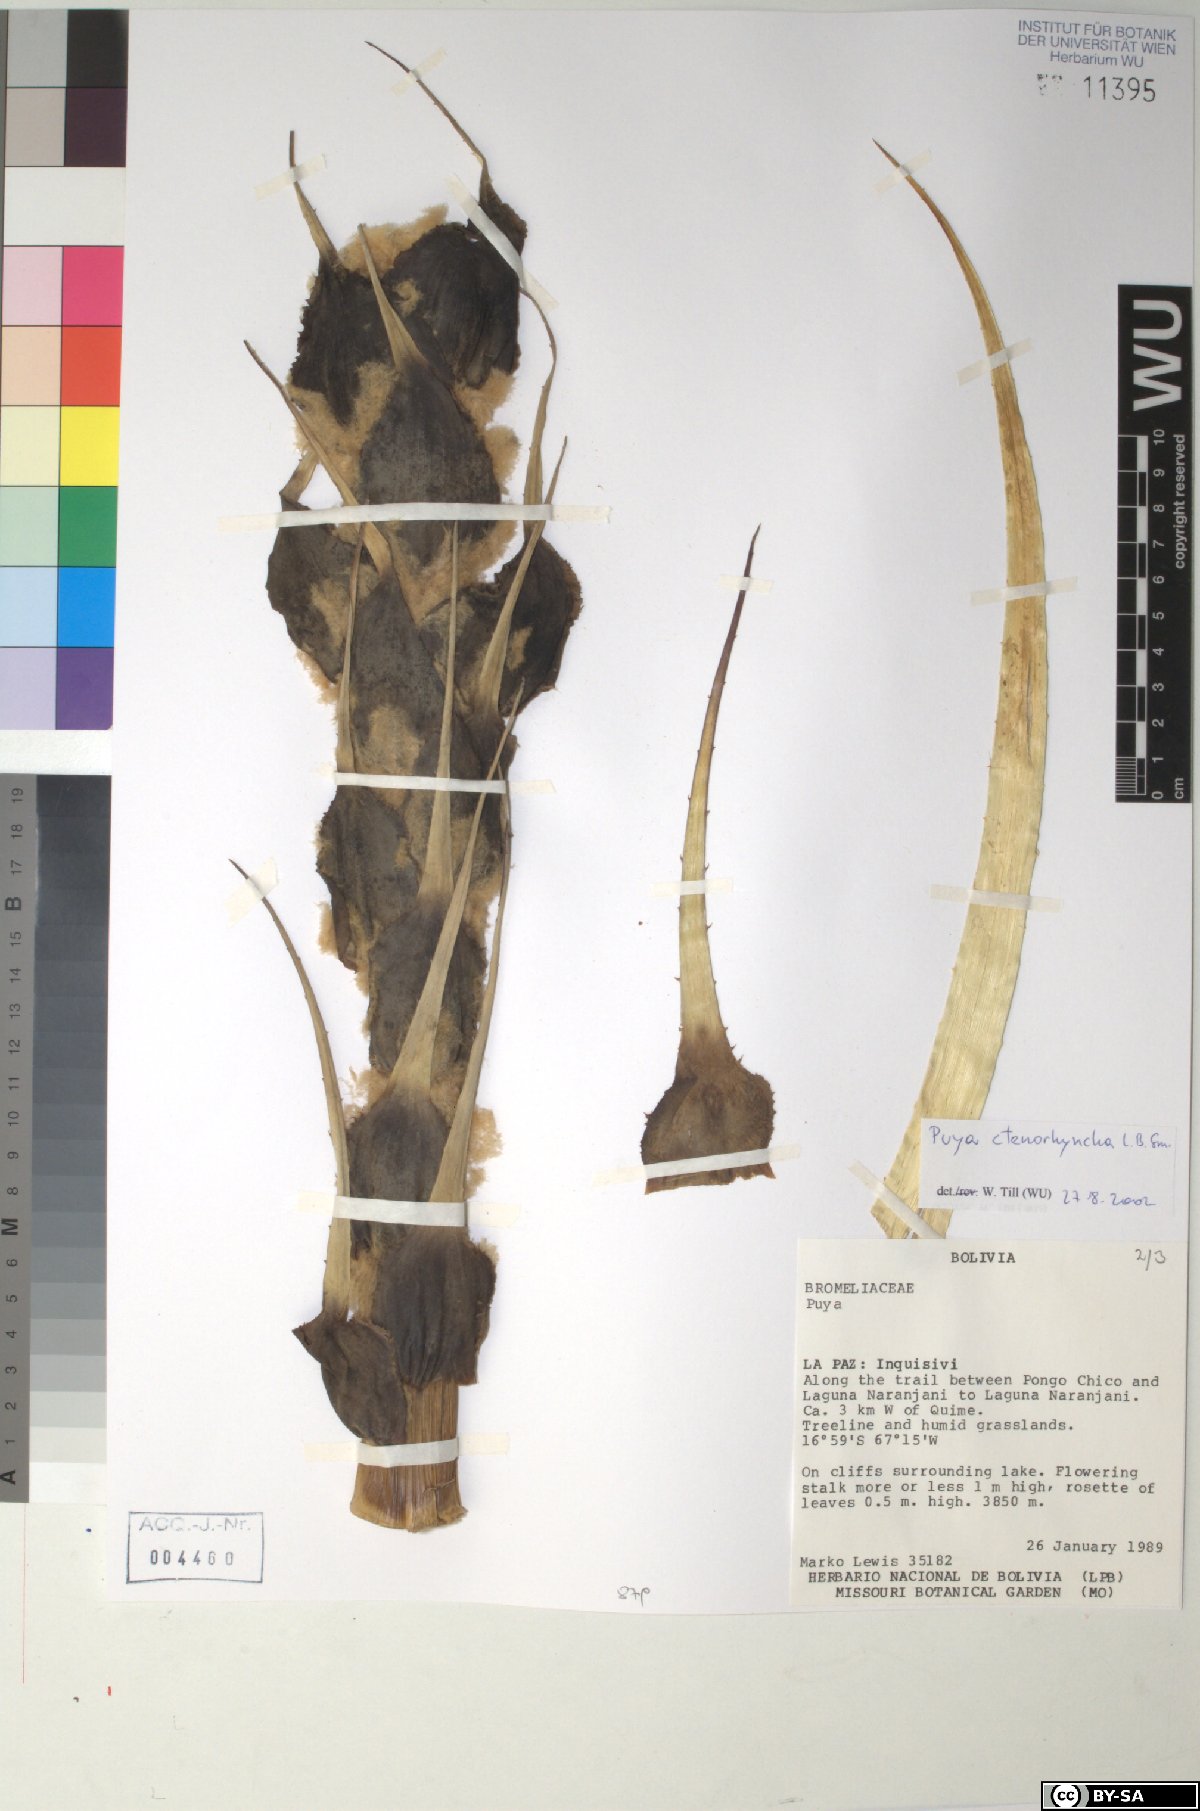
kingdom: Plantae
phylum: Tracheophyta
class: Liliopsida
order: Poales
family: Bromeliaceae
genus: Puya
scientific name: Puya ctenorhyncha
